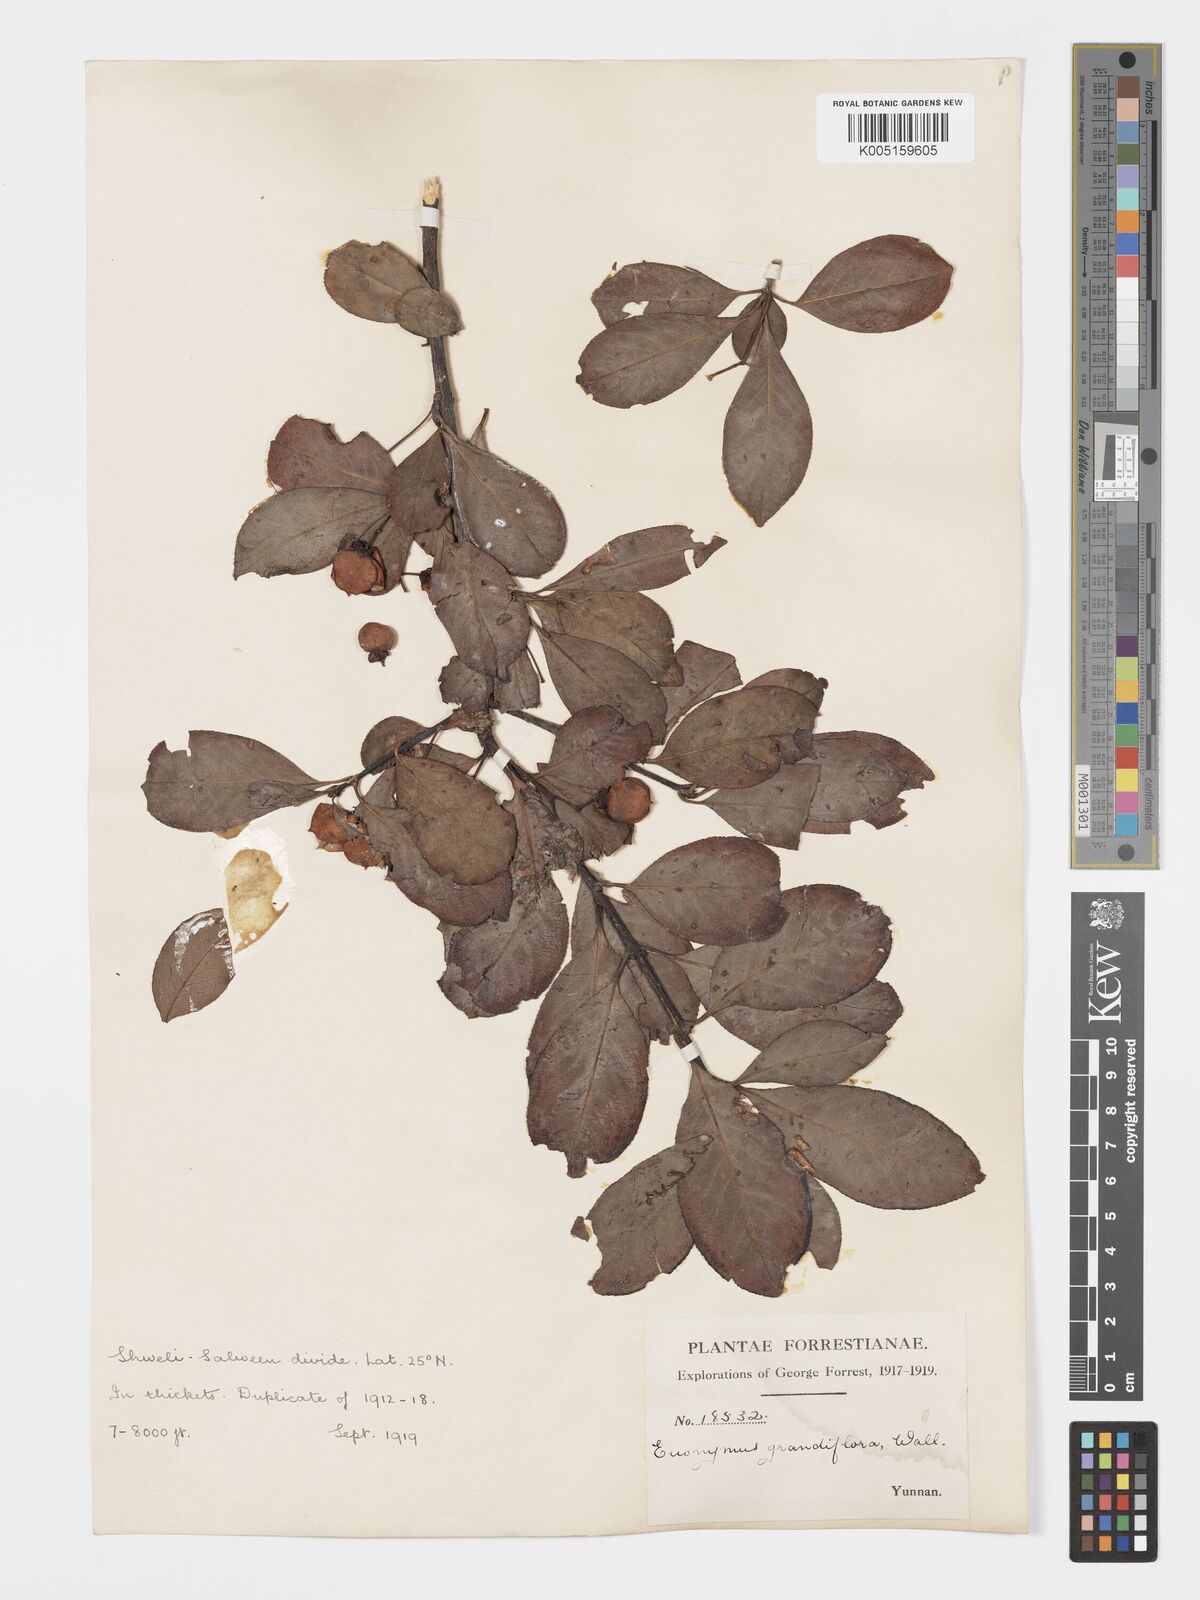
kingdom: Plantae
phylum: Tracheophyta
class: Magnoliopsida
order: Celastrales
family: Celastraceae
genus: Euonymus
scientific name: Euonymus grandiflorus
